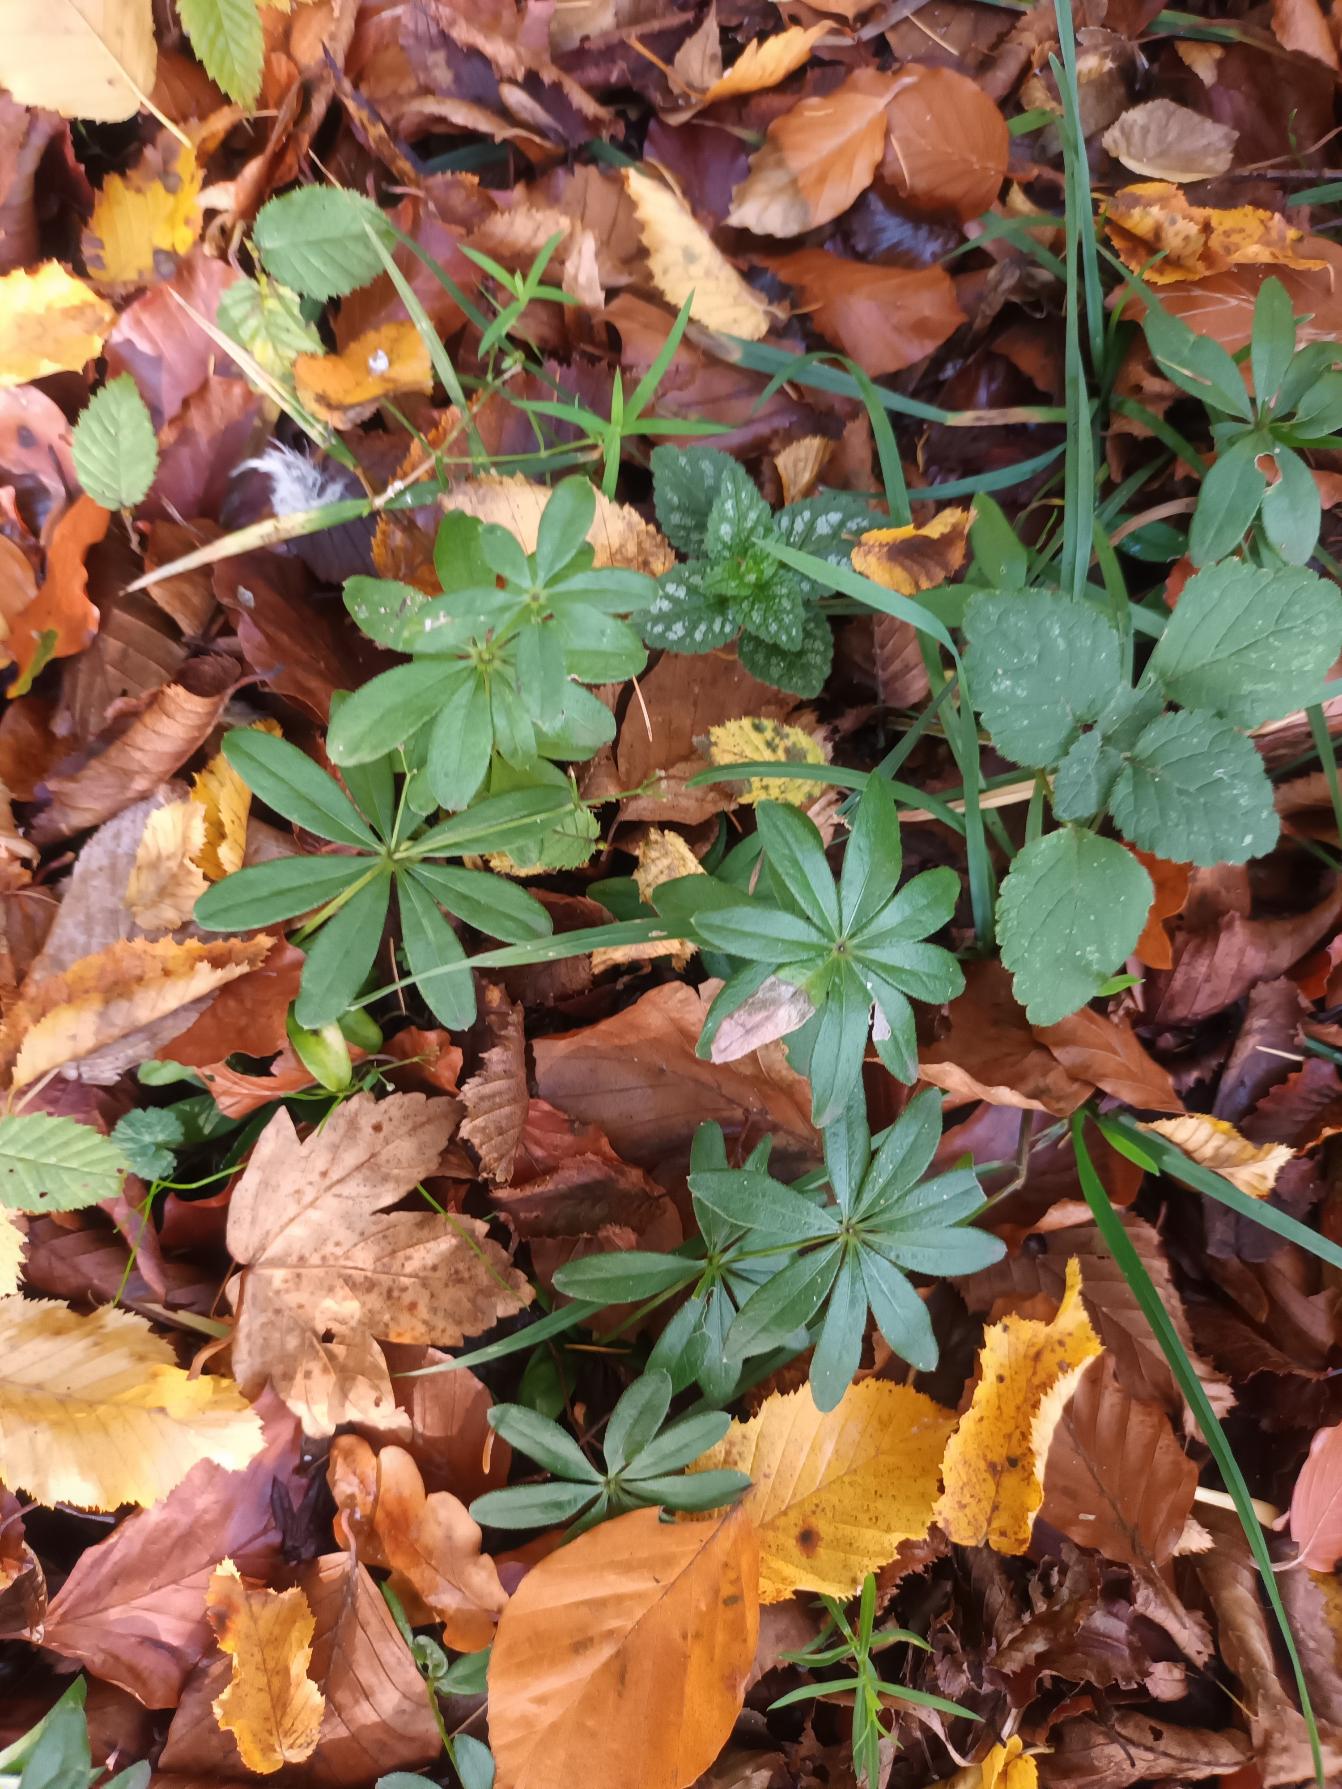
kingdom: Plantae
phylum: Tracheophyta
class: Magnoliopsida
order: Gentianales
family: Rubiaceae
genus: Galium
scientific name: Galium odoratum
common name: Skovmærke
